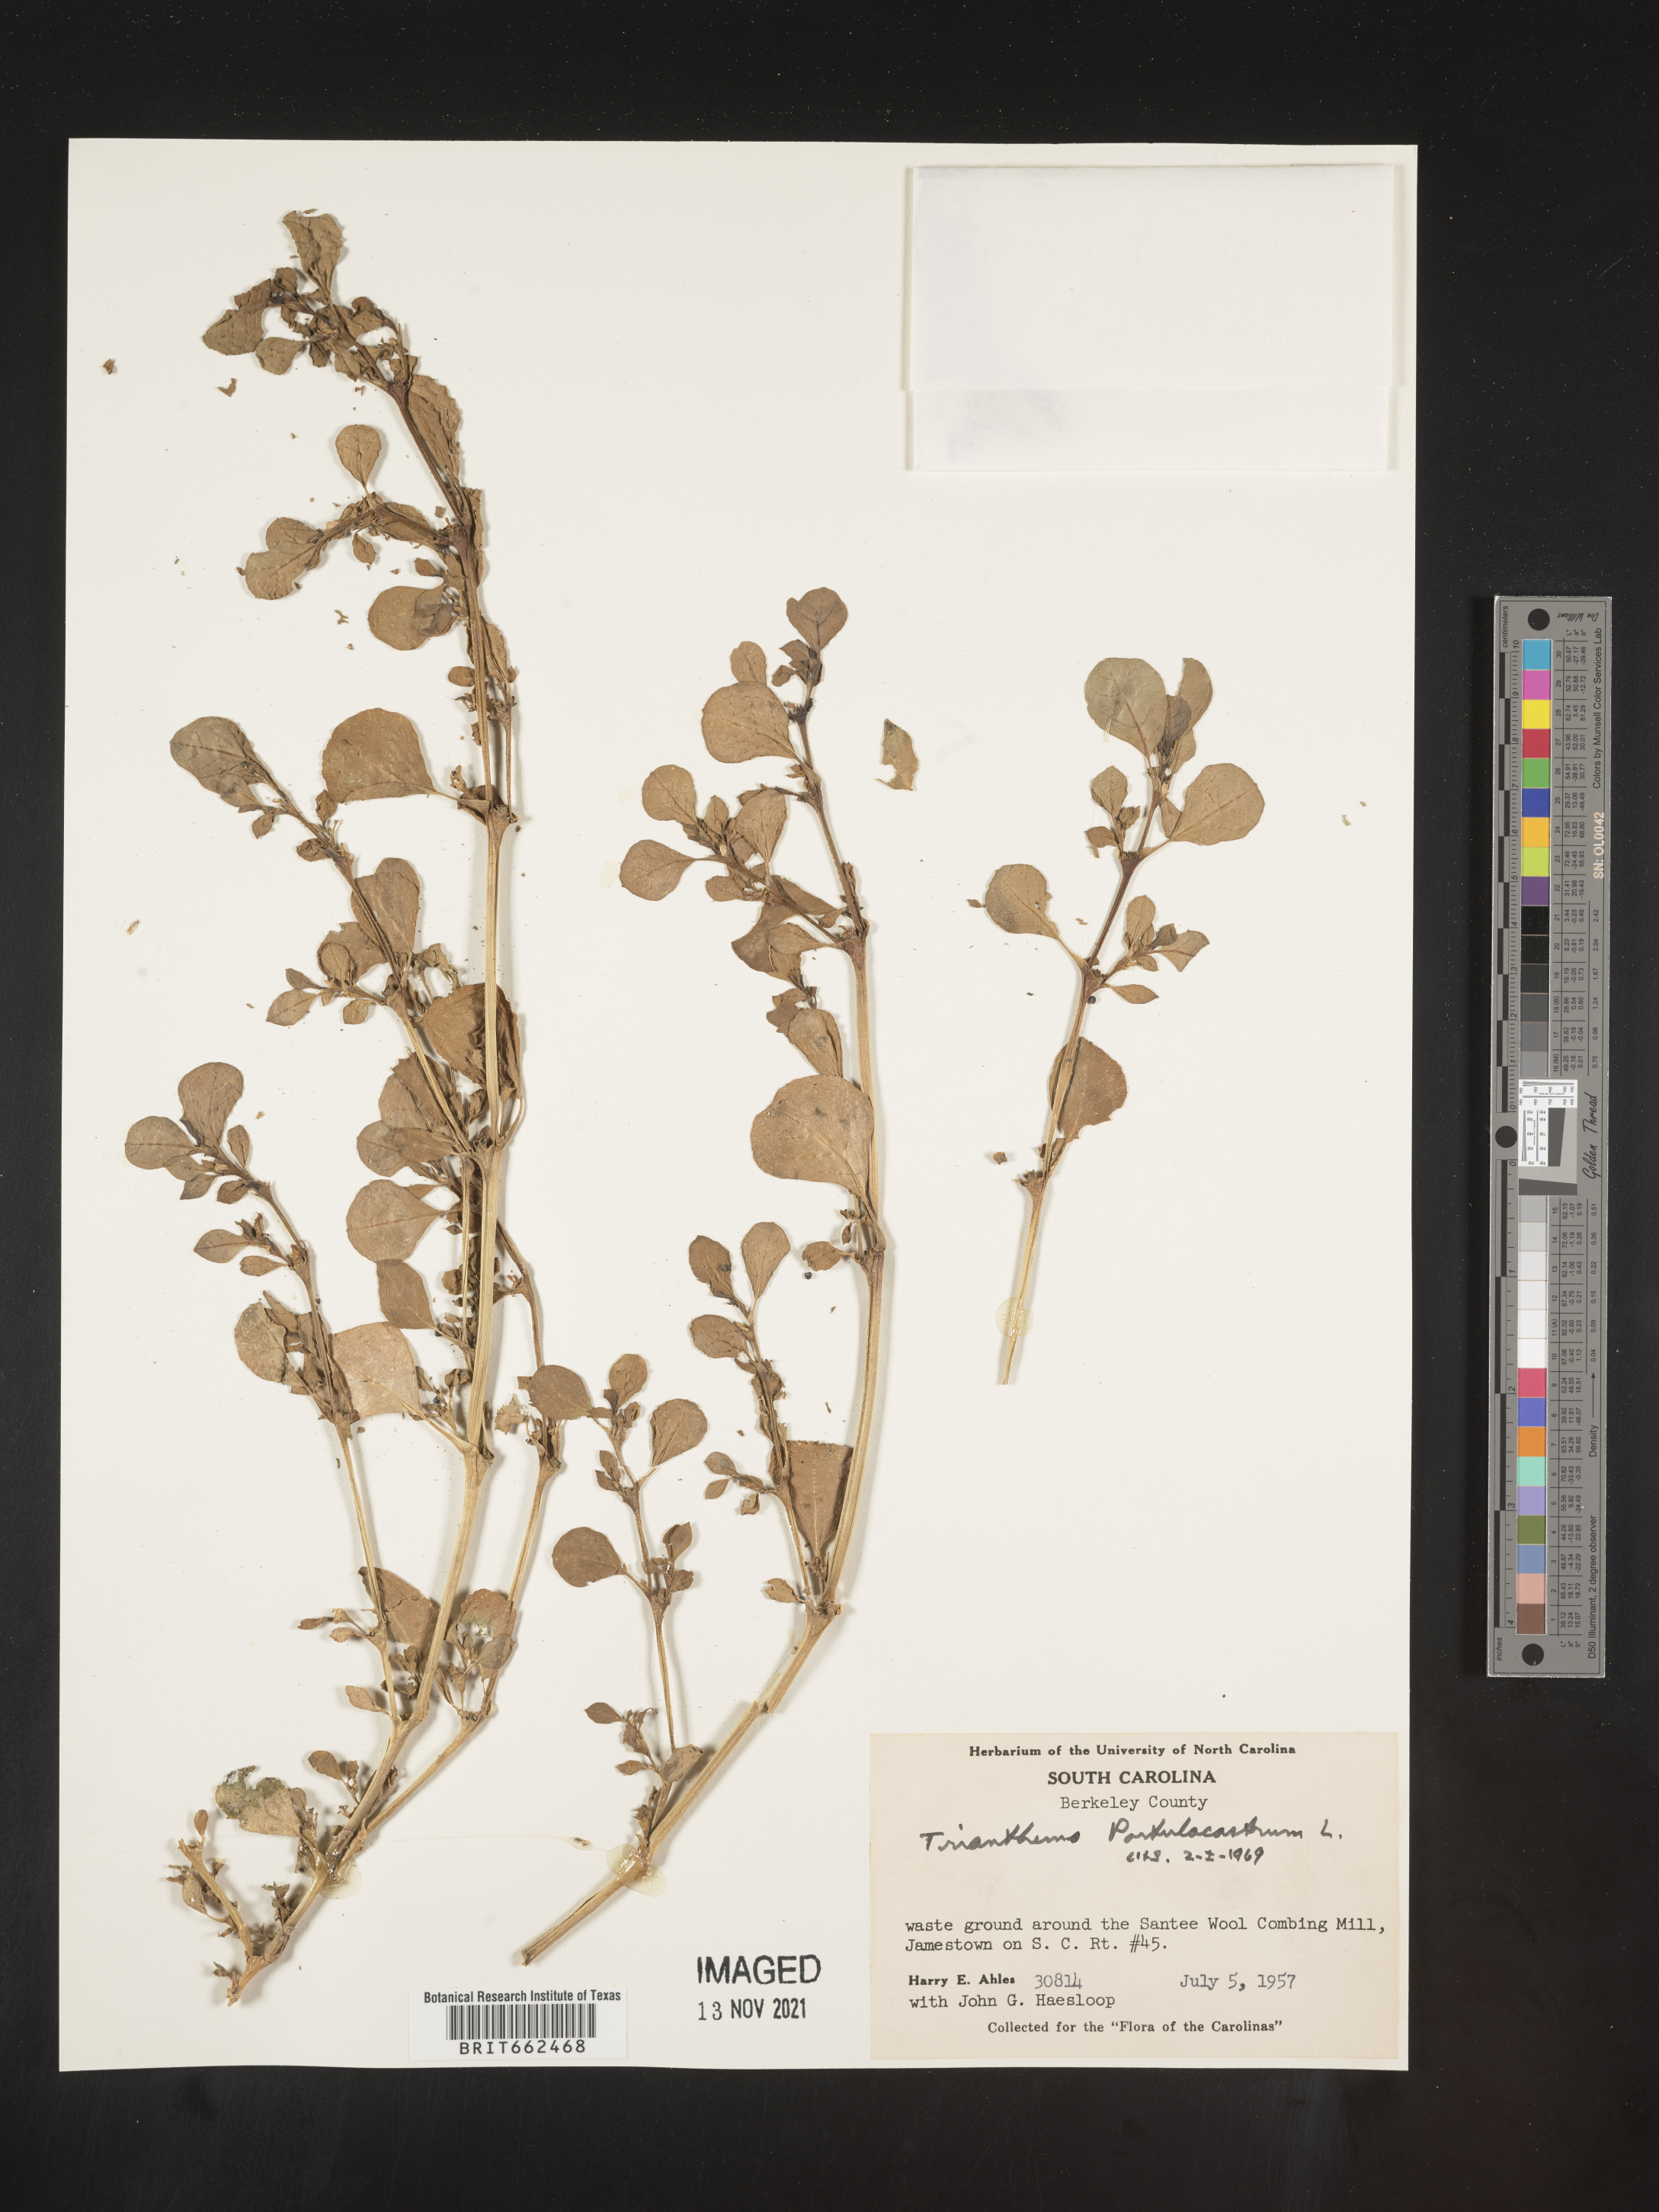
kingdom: Plantae
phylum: Tracheophyta
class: Magnoliopsida
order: Caryophyllales
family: Aizoaceae
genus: Trianthema
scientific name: Trianthema
